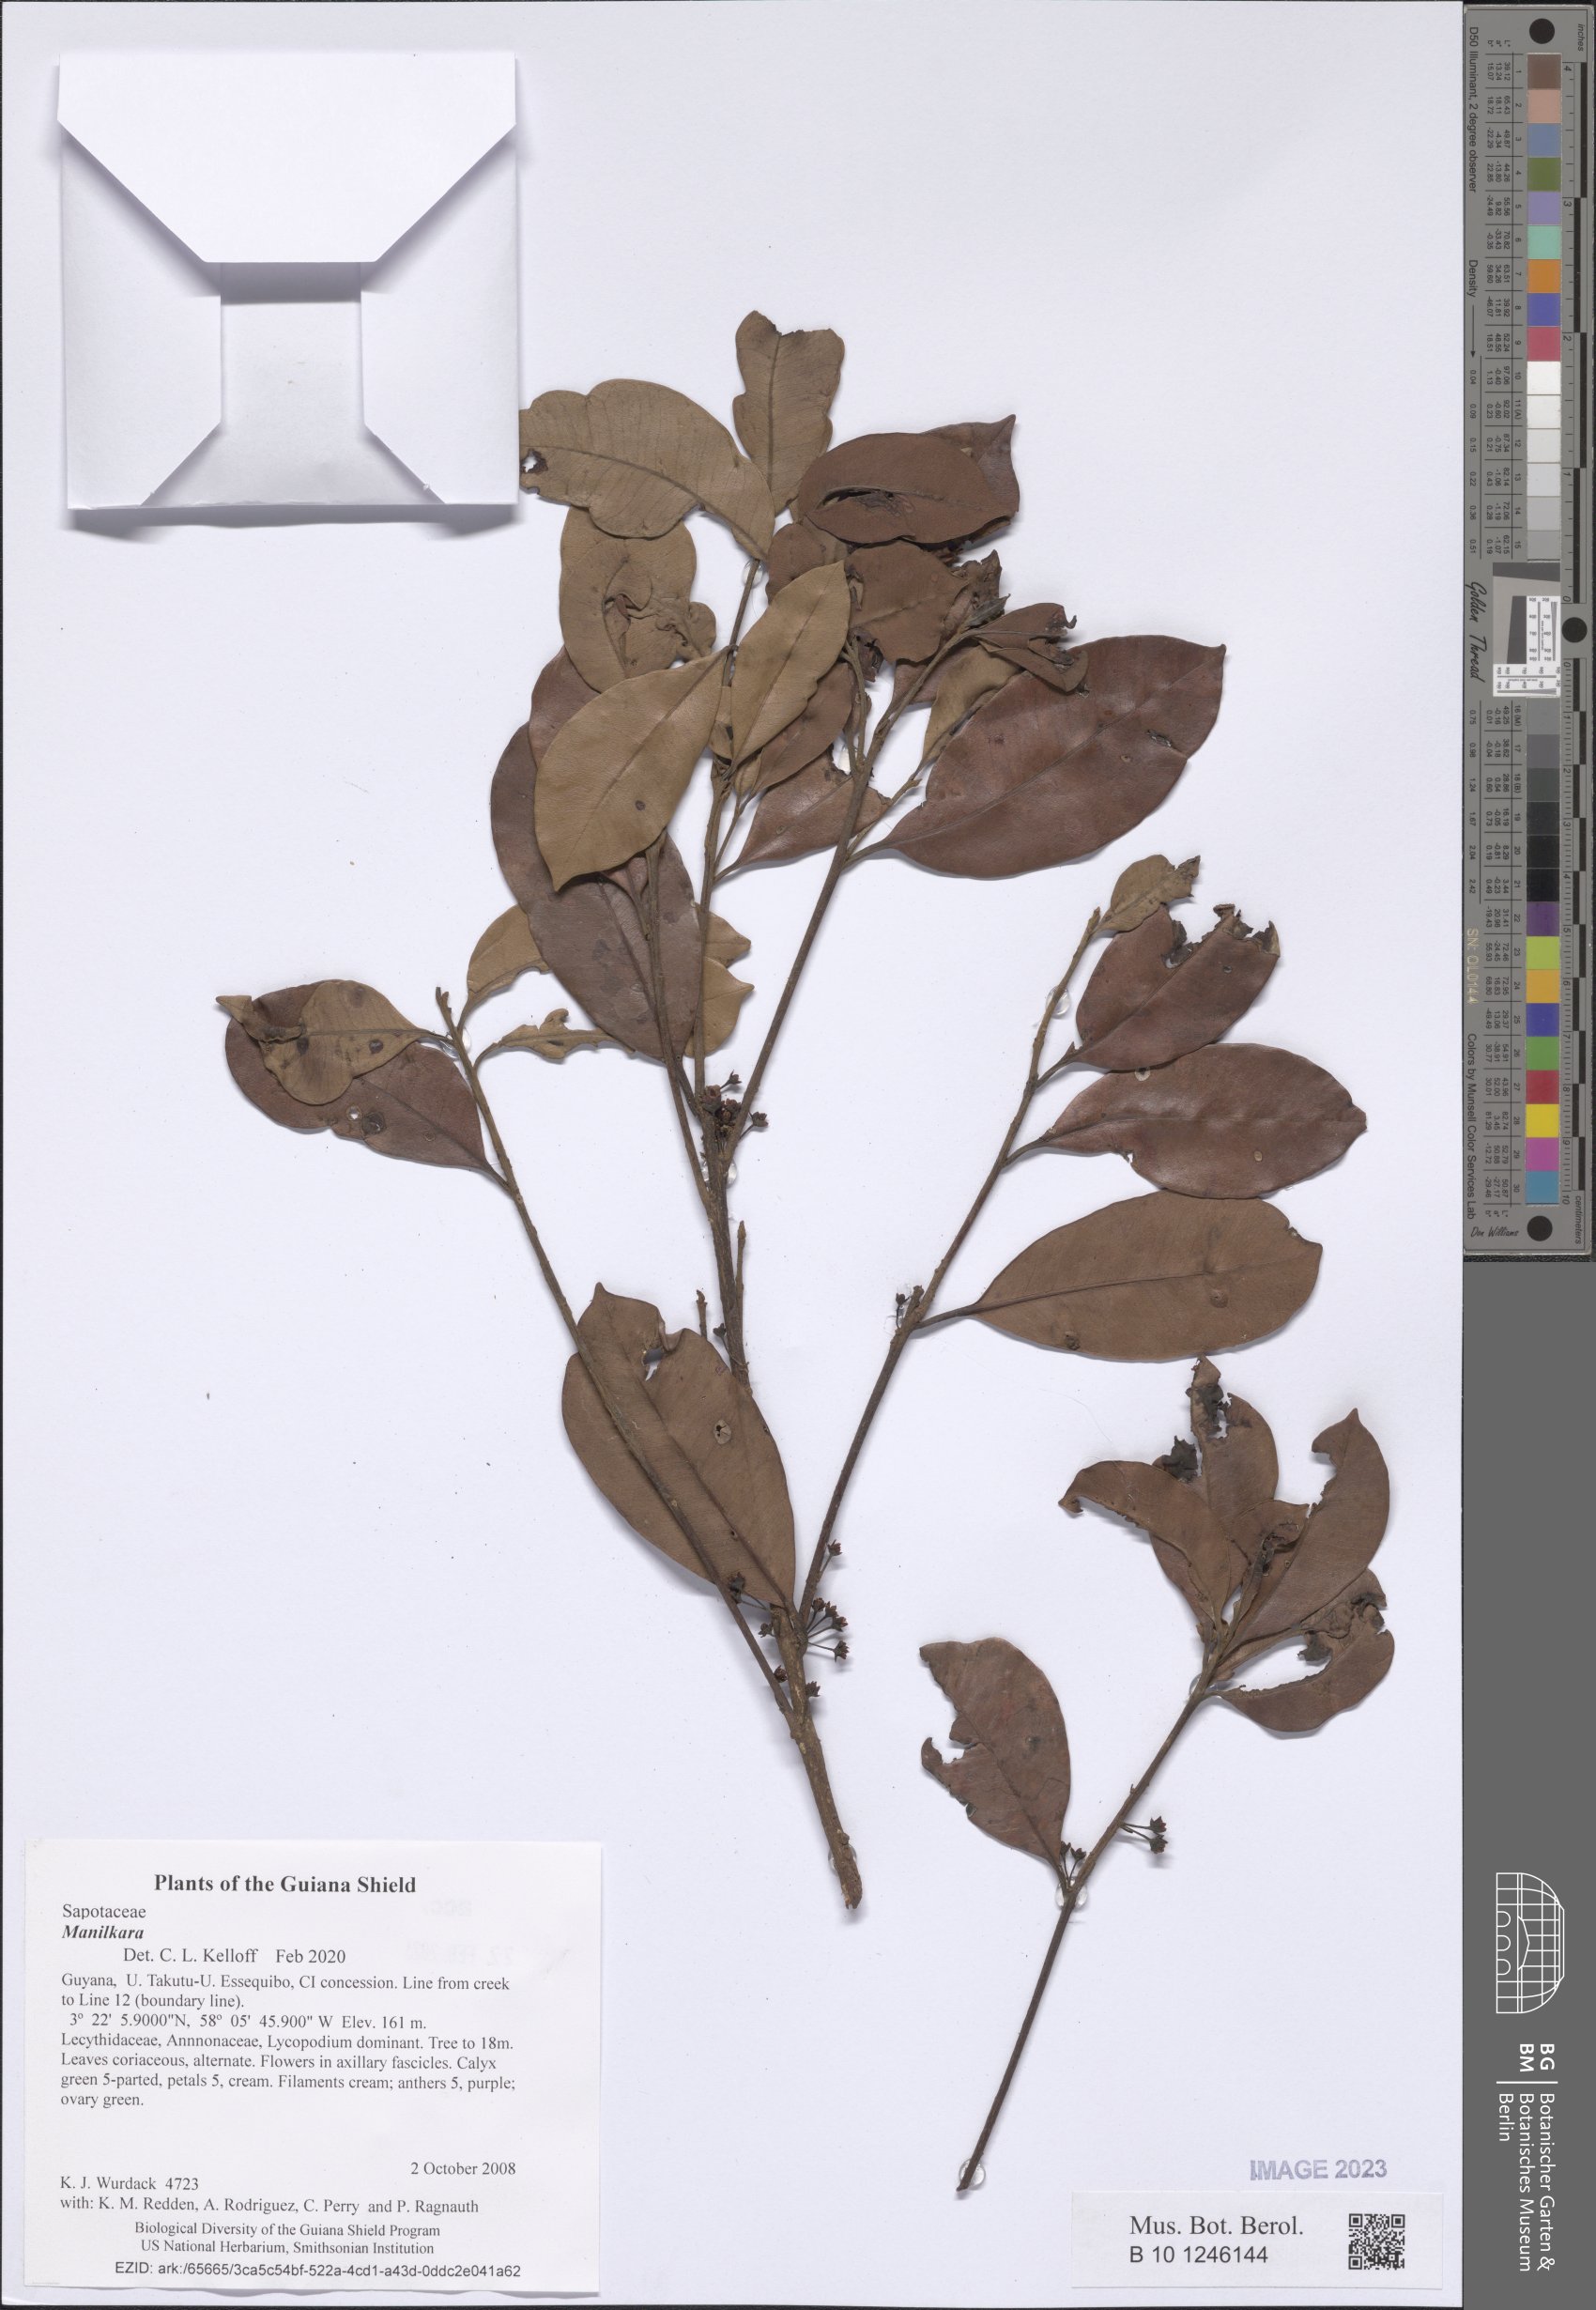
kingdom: Plantae
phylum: Tracheophyta
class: Magnoliopsida
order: Ericales
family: Sapotaceae
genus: Manilkara
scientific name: Manilkara
